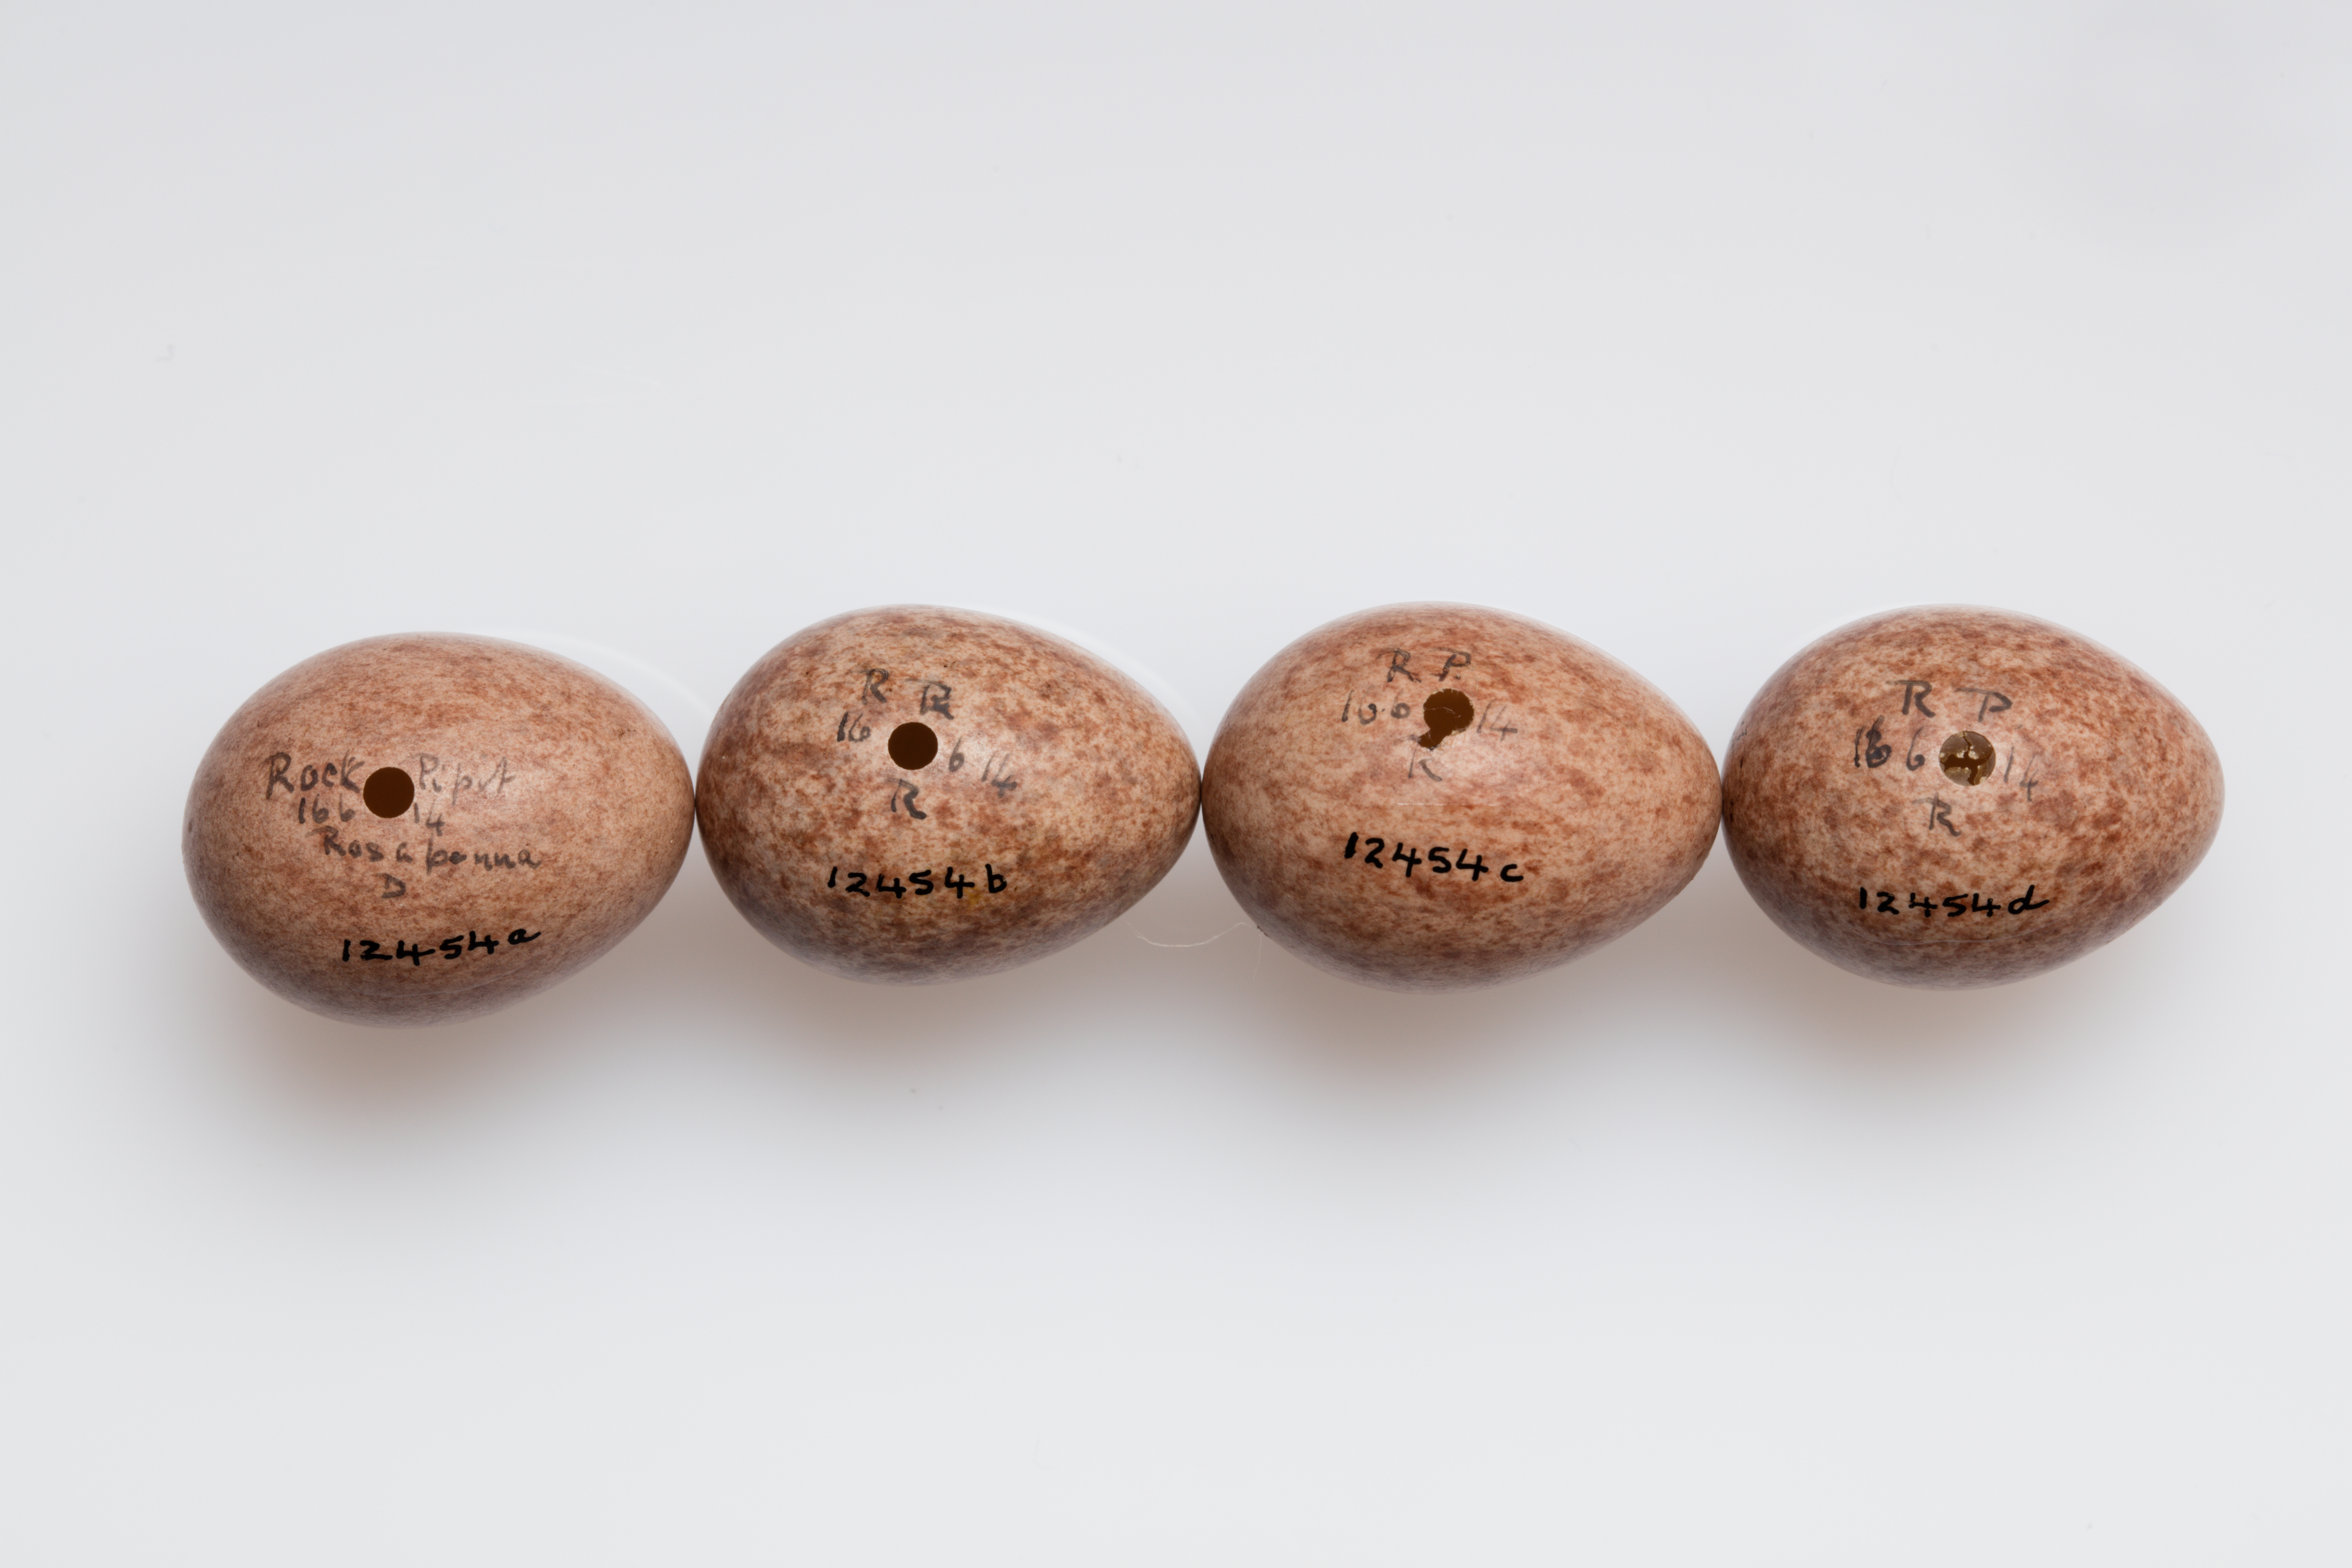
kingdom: Animalia
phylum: Chordata
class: Aves
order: Passeriformes
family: Motacillidae
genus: Anthus
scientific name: Anthus spinoletta
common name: Water pipit
